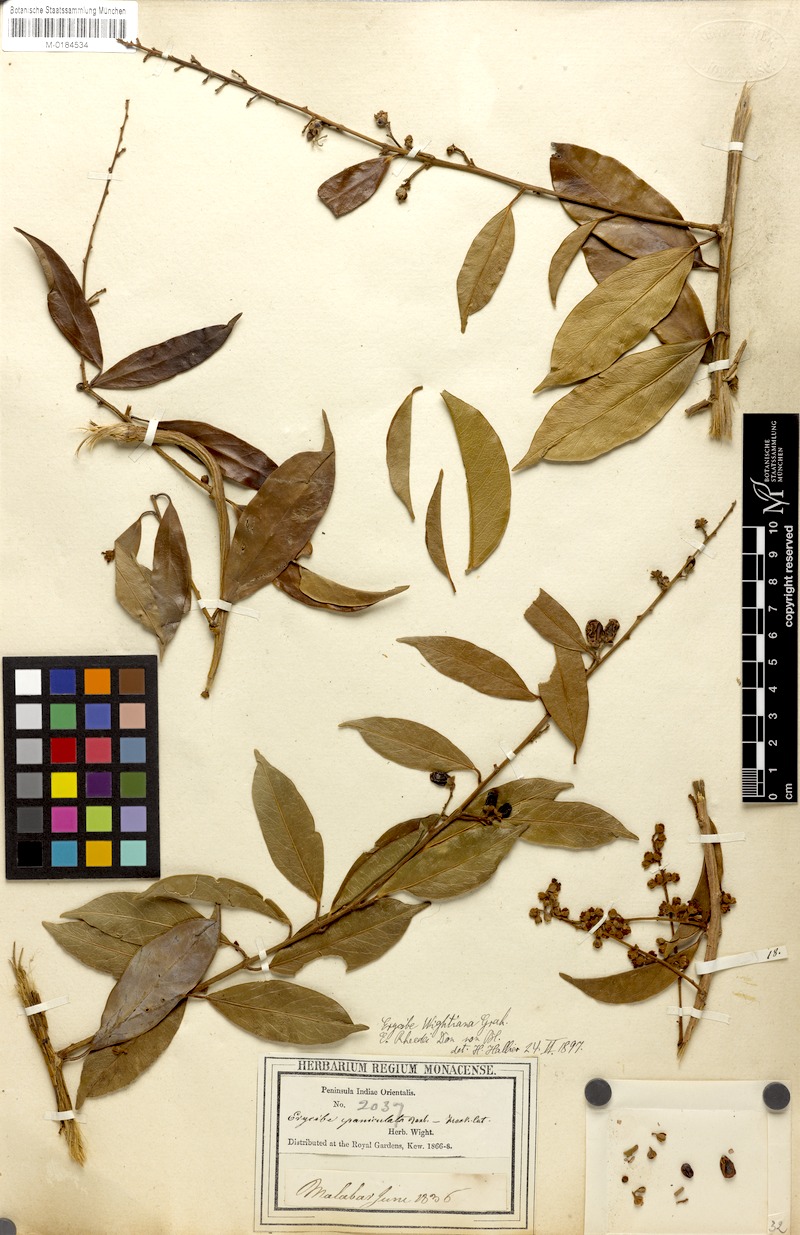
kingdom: Plantae
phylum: Tracheophyta
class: Magnoliopsida
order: Solanales
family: Convolvulaceae
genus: Erycibe
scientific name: Erycibe paniculata
